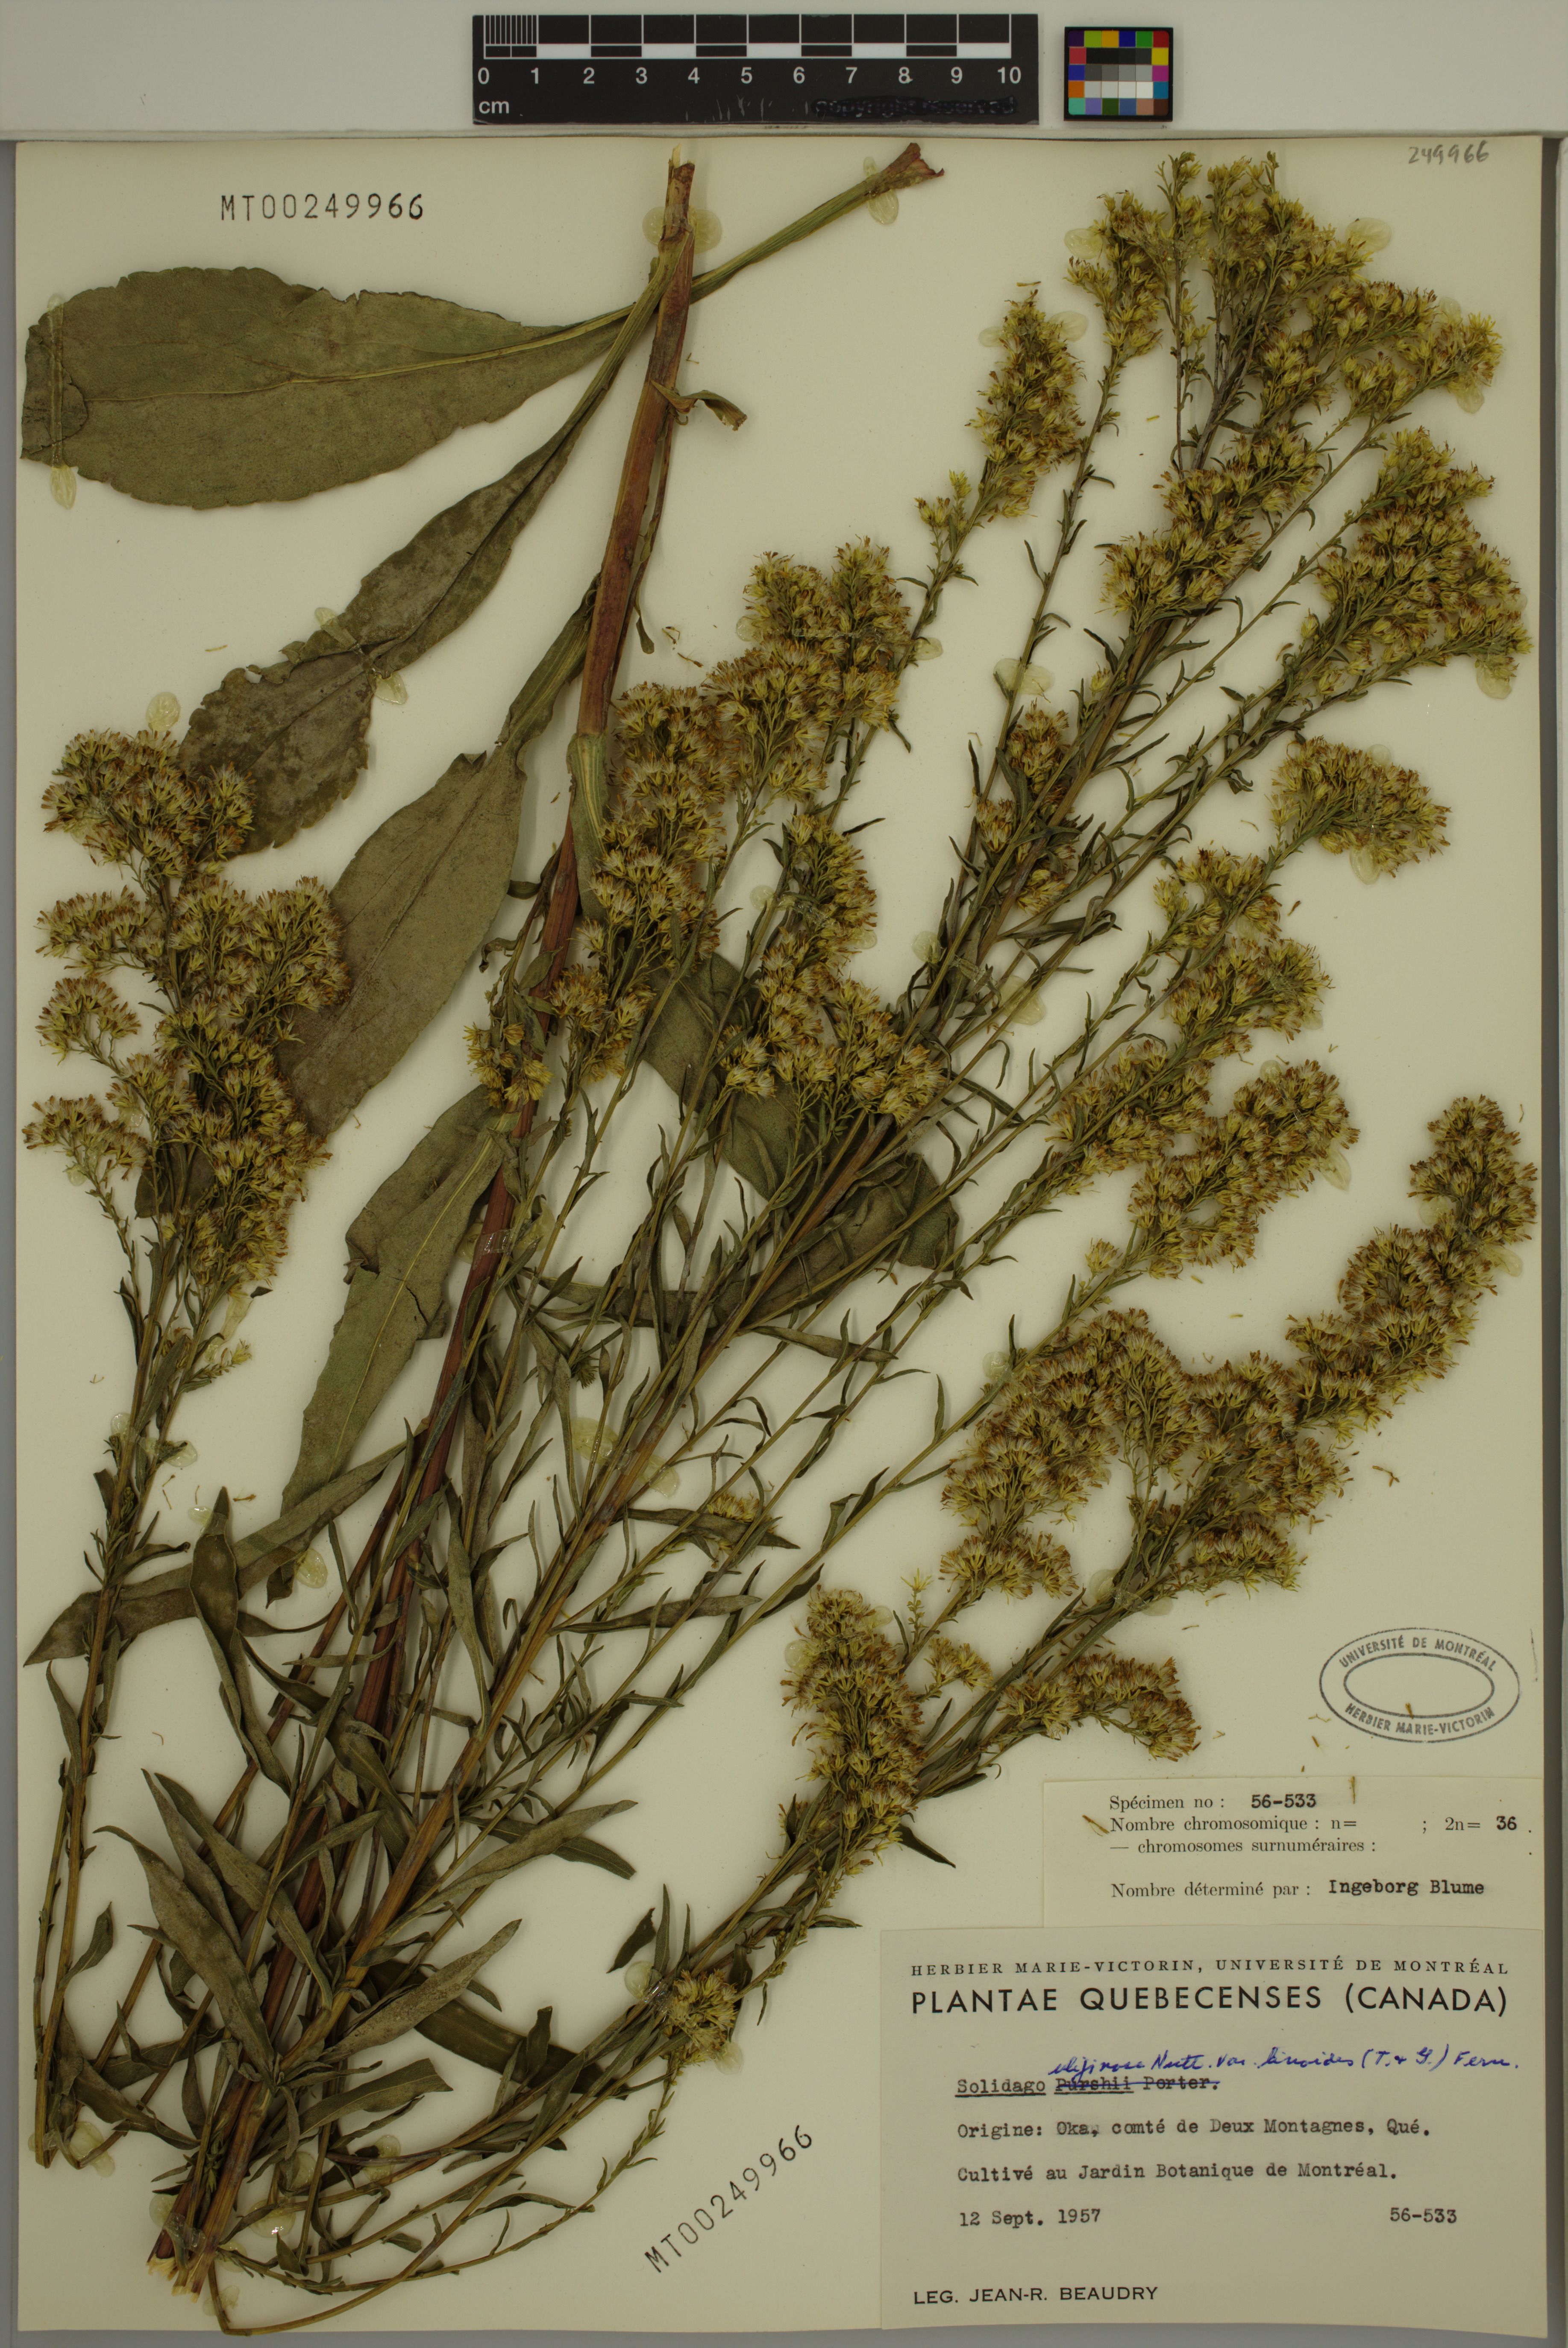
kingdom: Plantae
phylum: Tracheophyta
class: Magnoliopsida
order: Asterales
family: Asteraceae
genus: Solidago
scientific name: Solidago uliginosa
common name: Bog goldenrod
